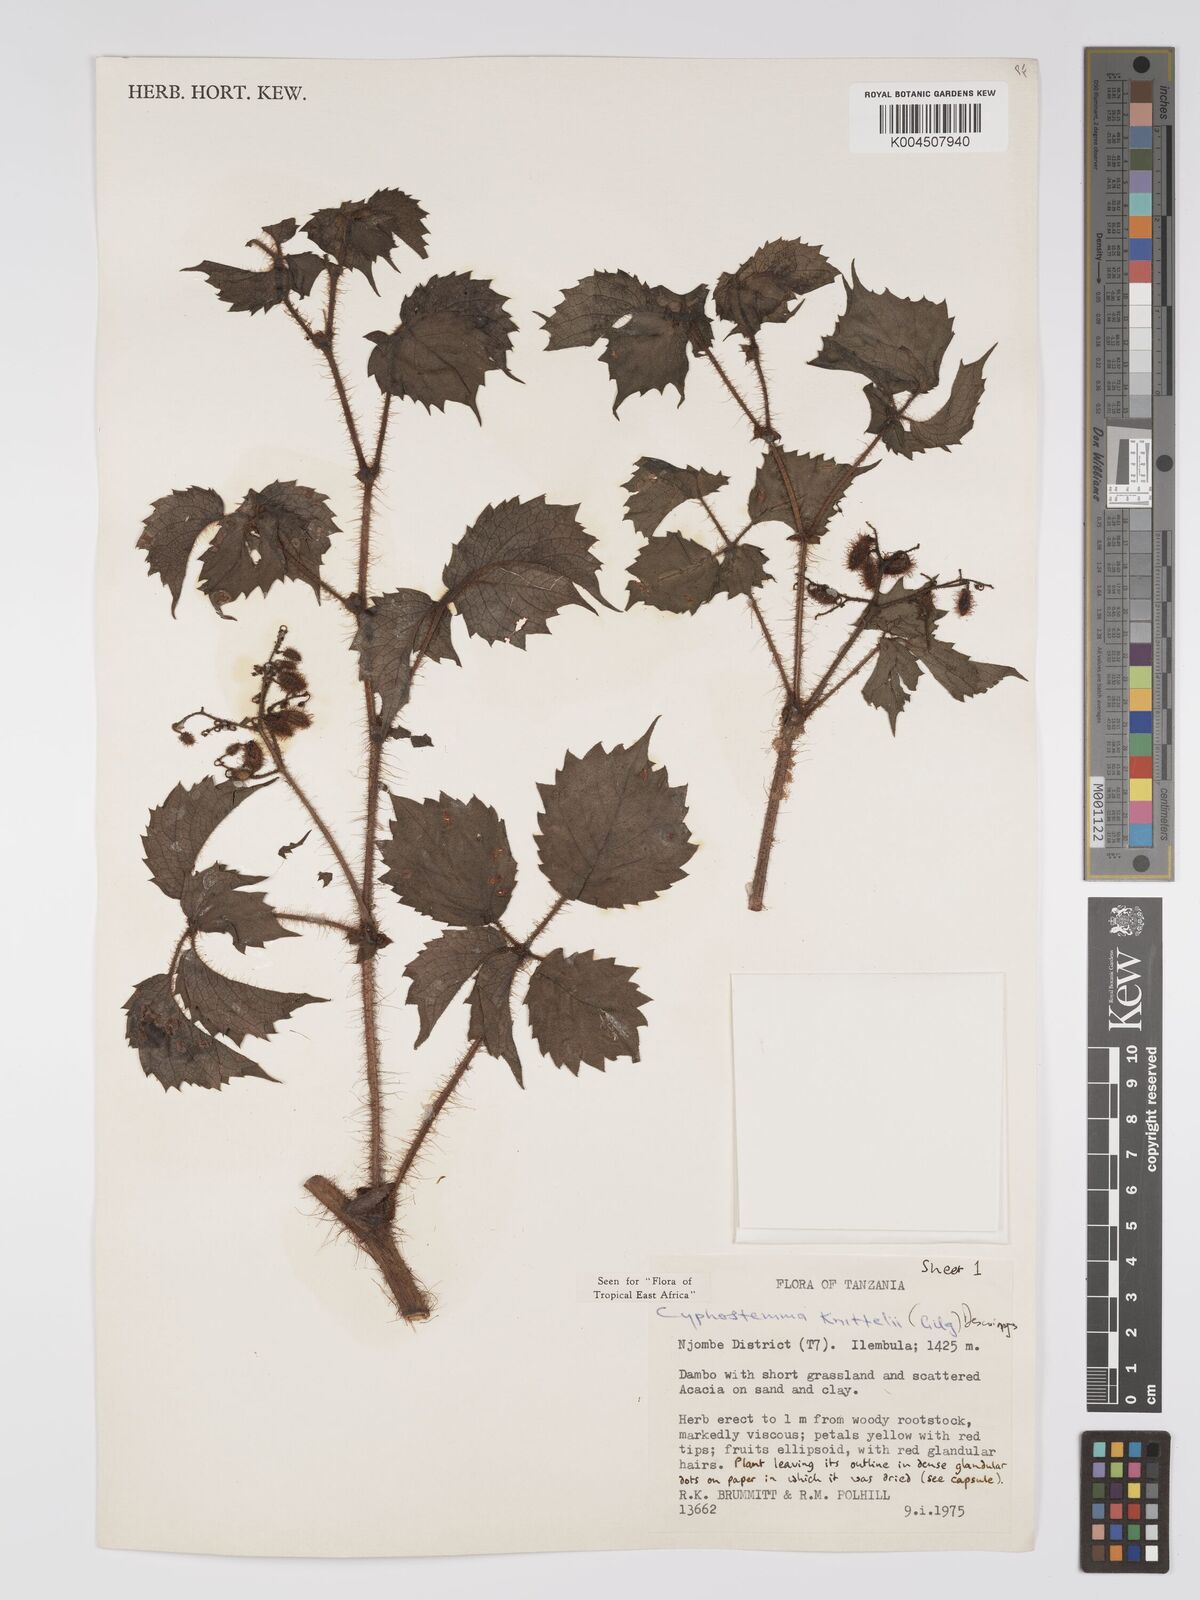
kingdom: Plantae
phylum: Tracheophyta
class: Magnoliopsida
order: Vitales
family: Vitaceae
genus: Cyphostemma
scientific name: Cyphostemma knittelii
